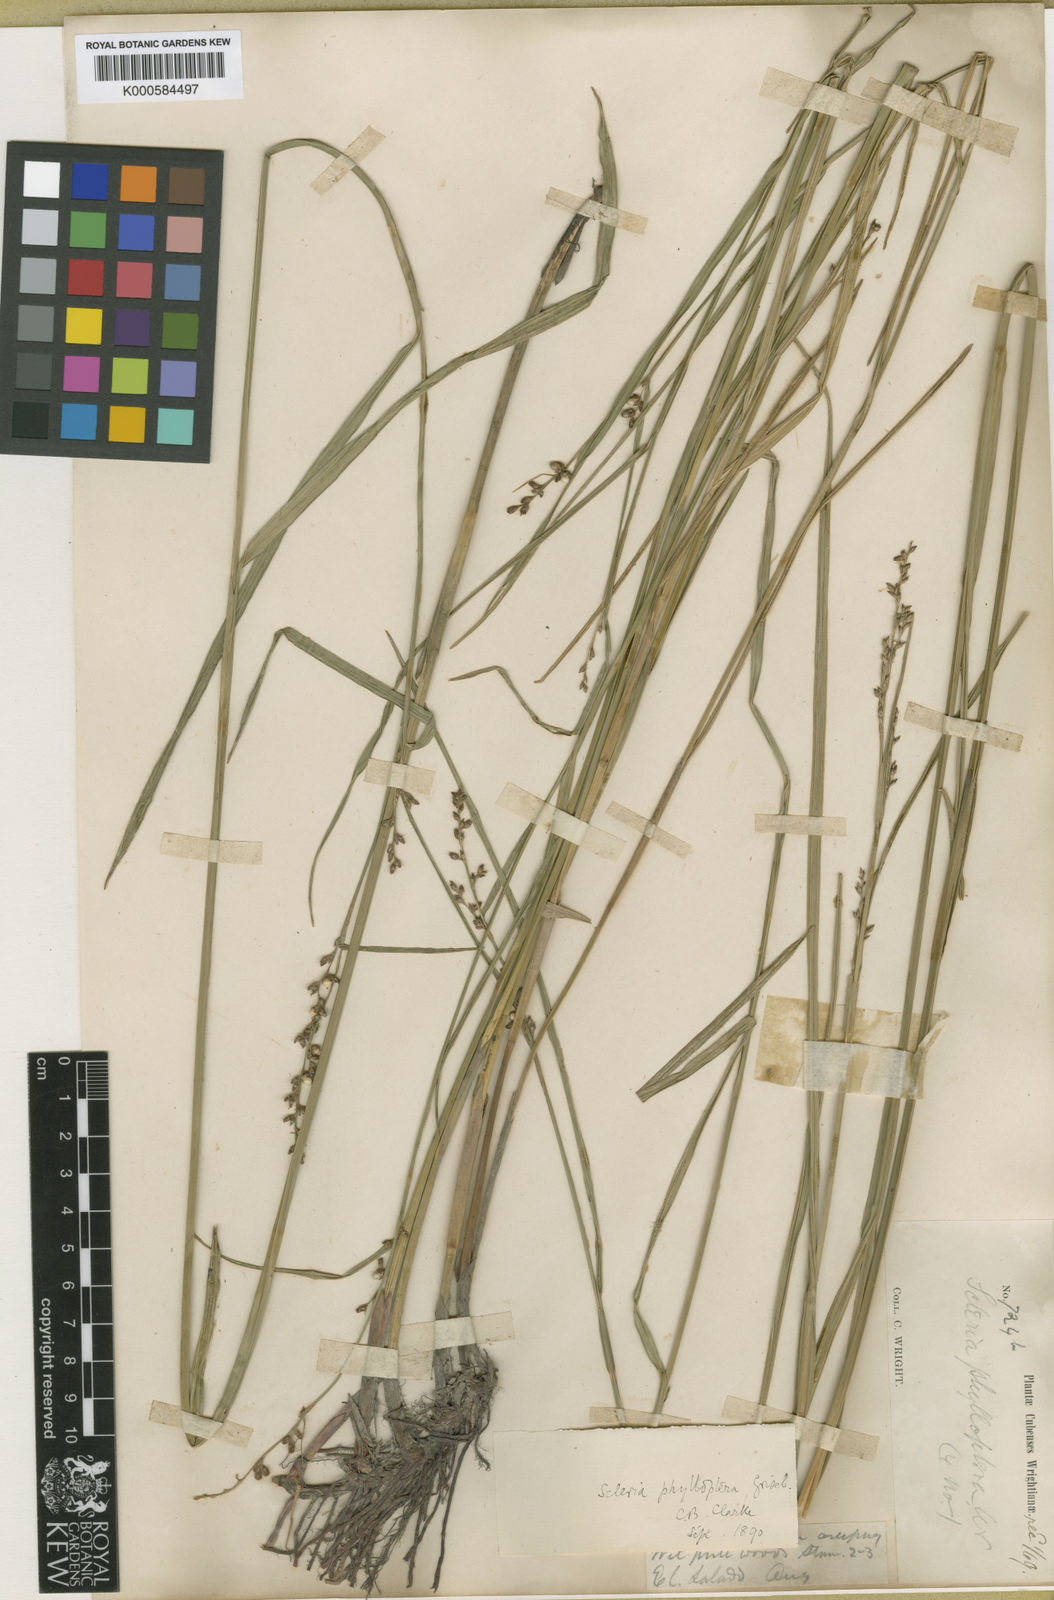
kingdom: Plantae
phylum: Tracheophyta
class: Liliopsida
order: Poales
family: Cyperaceae
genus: Scleria
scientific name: Scleria testacea
